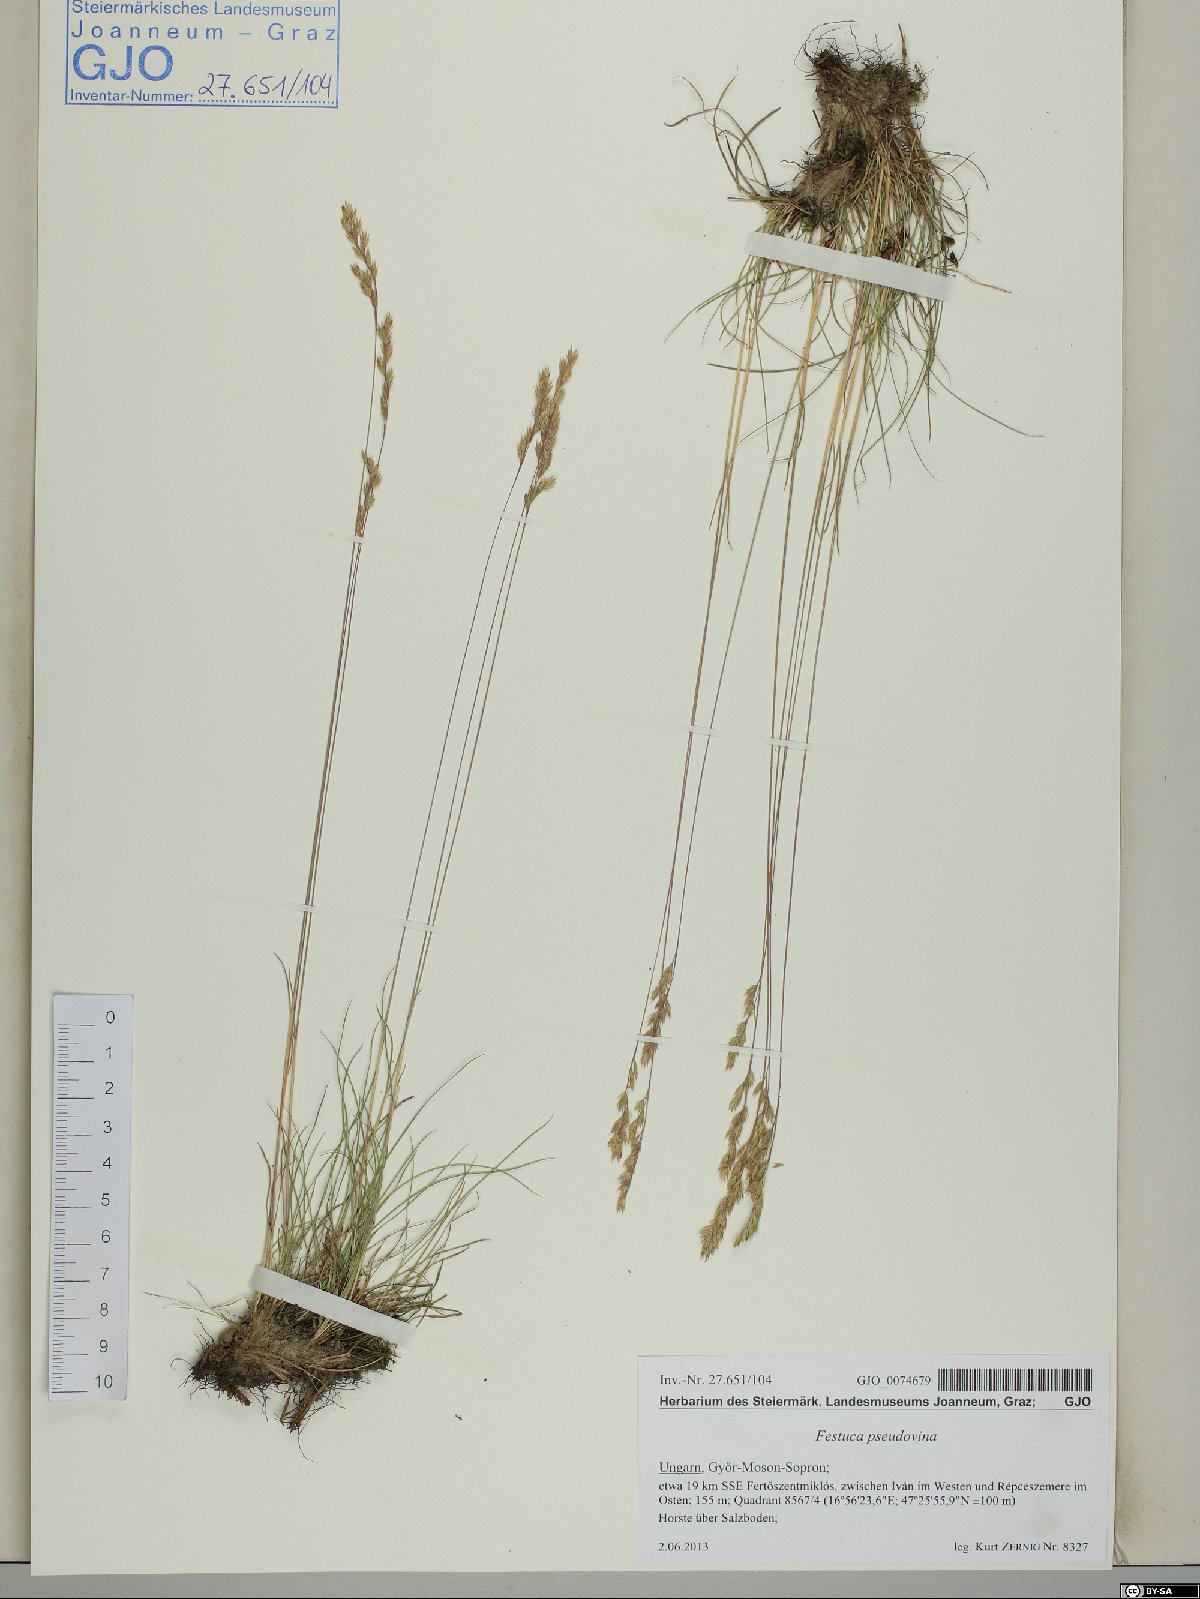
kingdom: Plantae
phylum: Tracheophyta
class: Liliopsida
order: Poales
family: Poaceae
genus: Festuca
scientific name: Festuca pulchra
